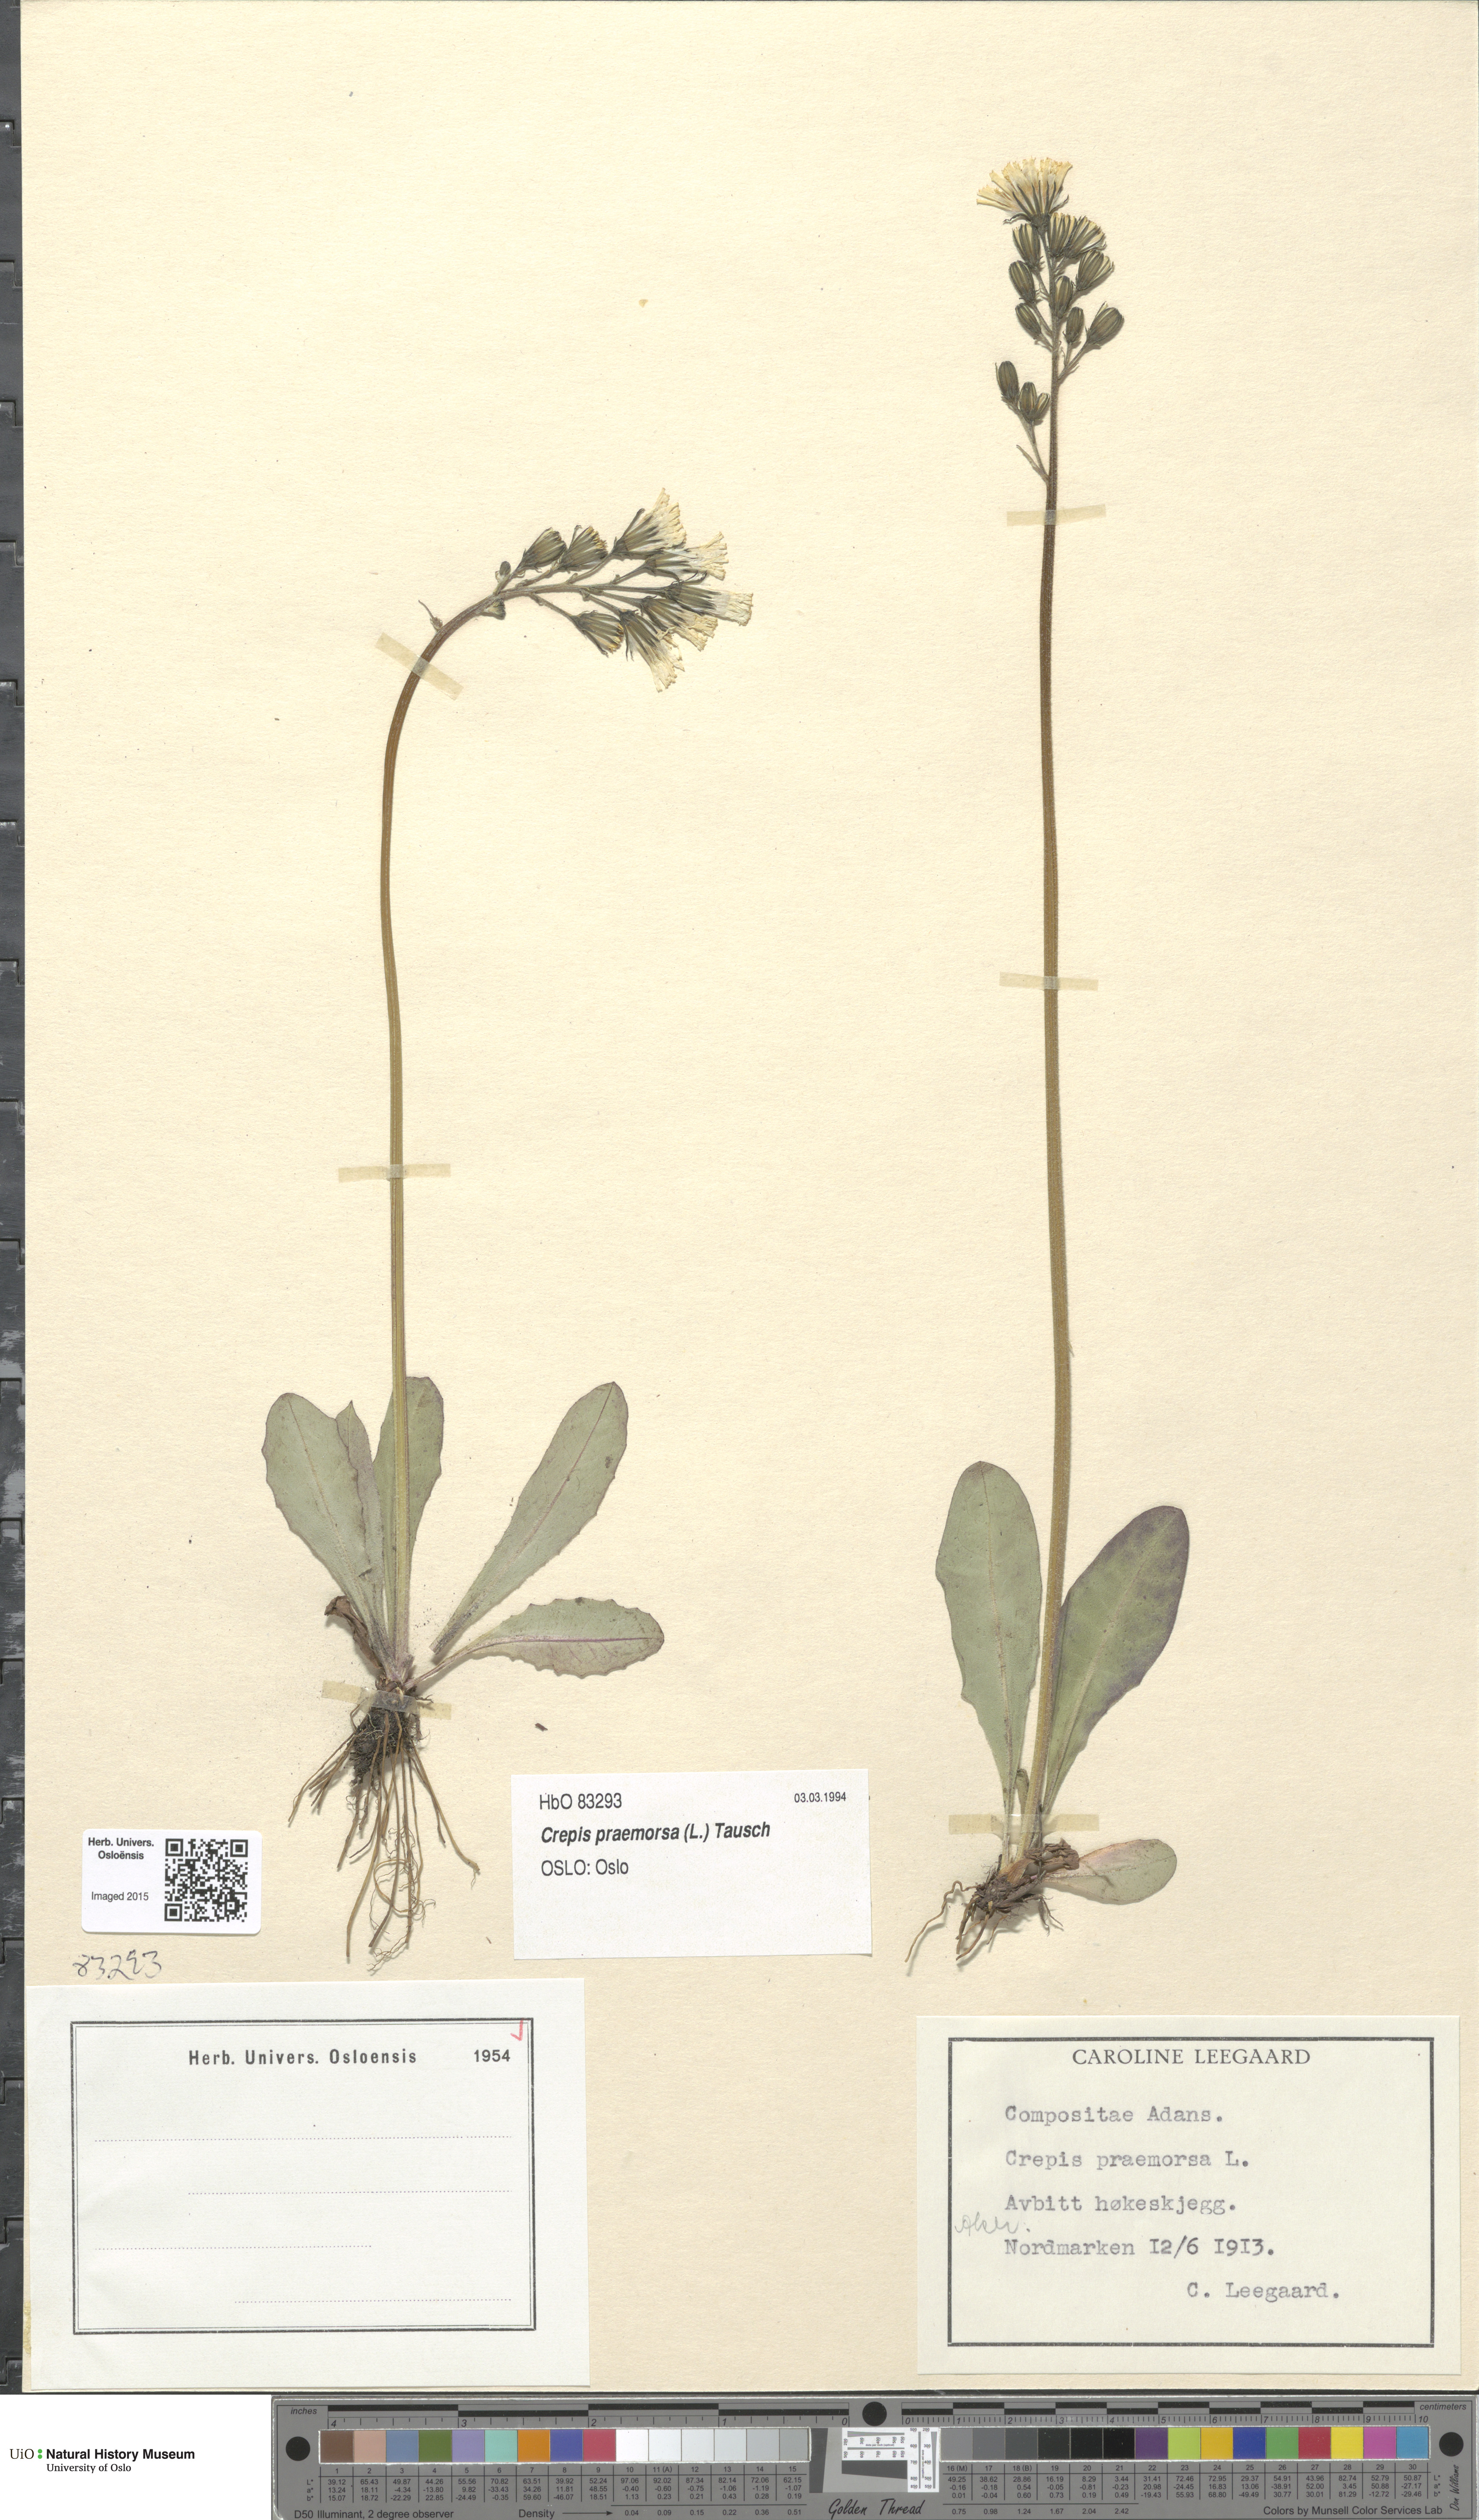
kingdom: Plantae
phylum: Tracheophyta
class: Magnoliopsida
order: Asterales
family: Asteraceae
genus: Crepis
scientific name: Crepis praemorsa
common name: Leafless hawk's-beard
